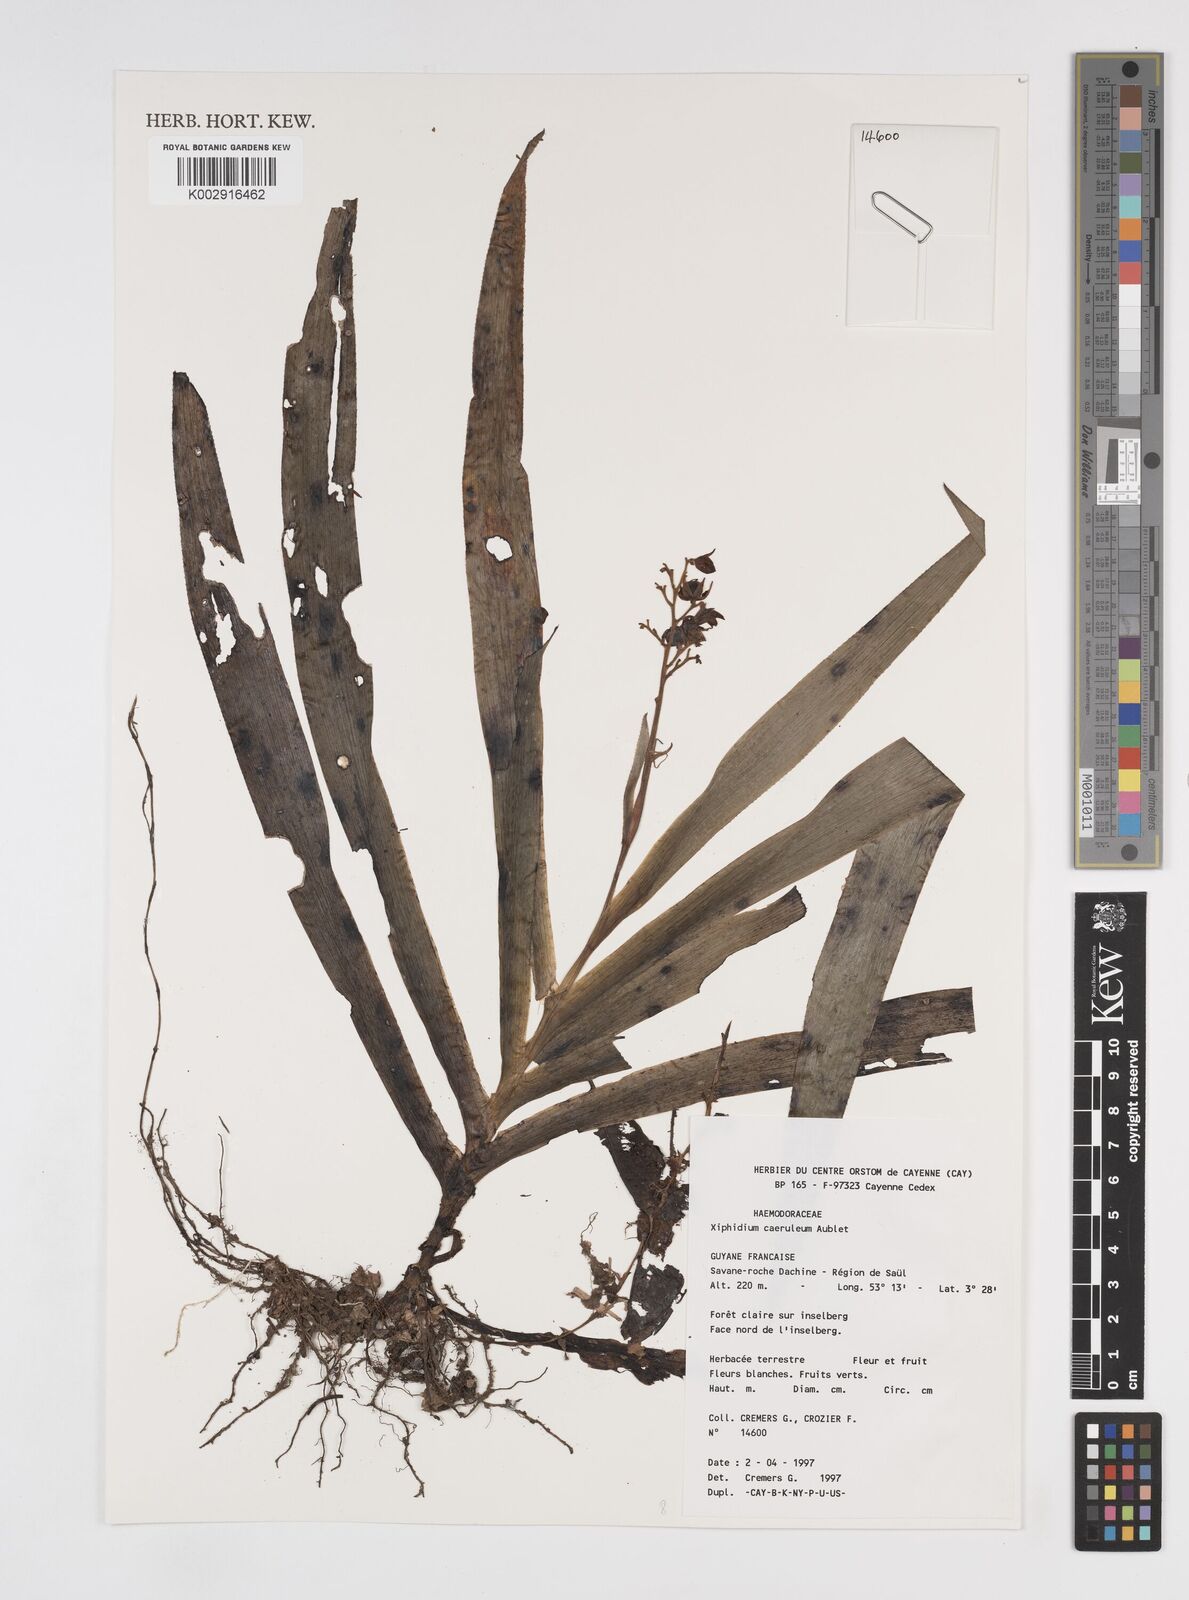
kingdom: Plantae
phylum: Tracheophyta
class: Liliopsida
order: Commelinales
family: Haemodoraceae
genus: Xiphidium
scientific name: Xiphidium caeruleum
